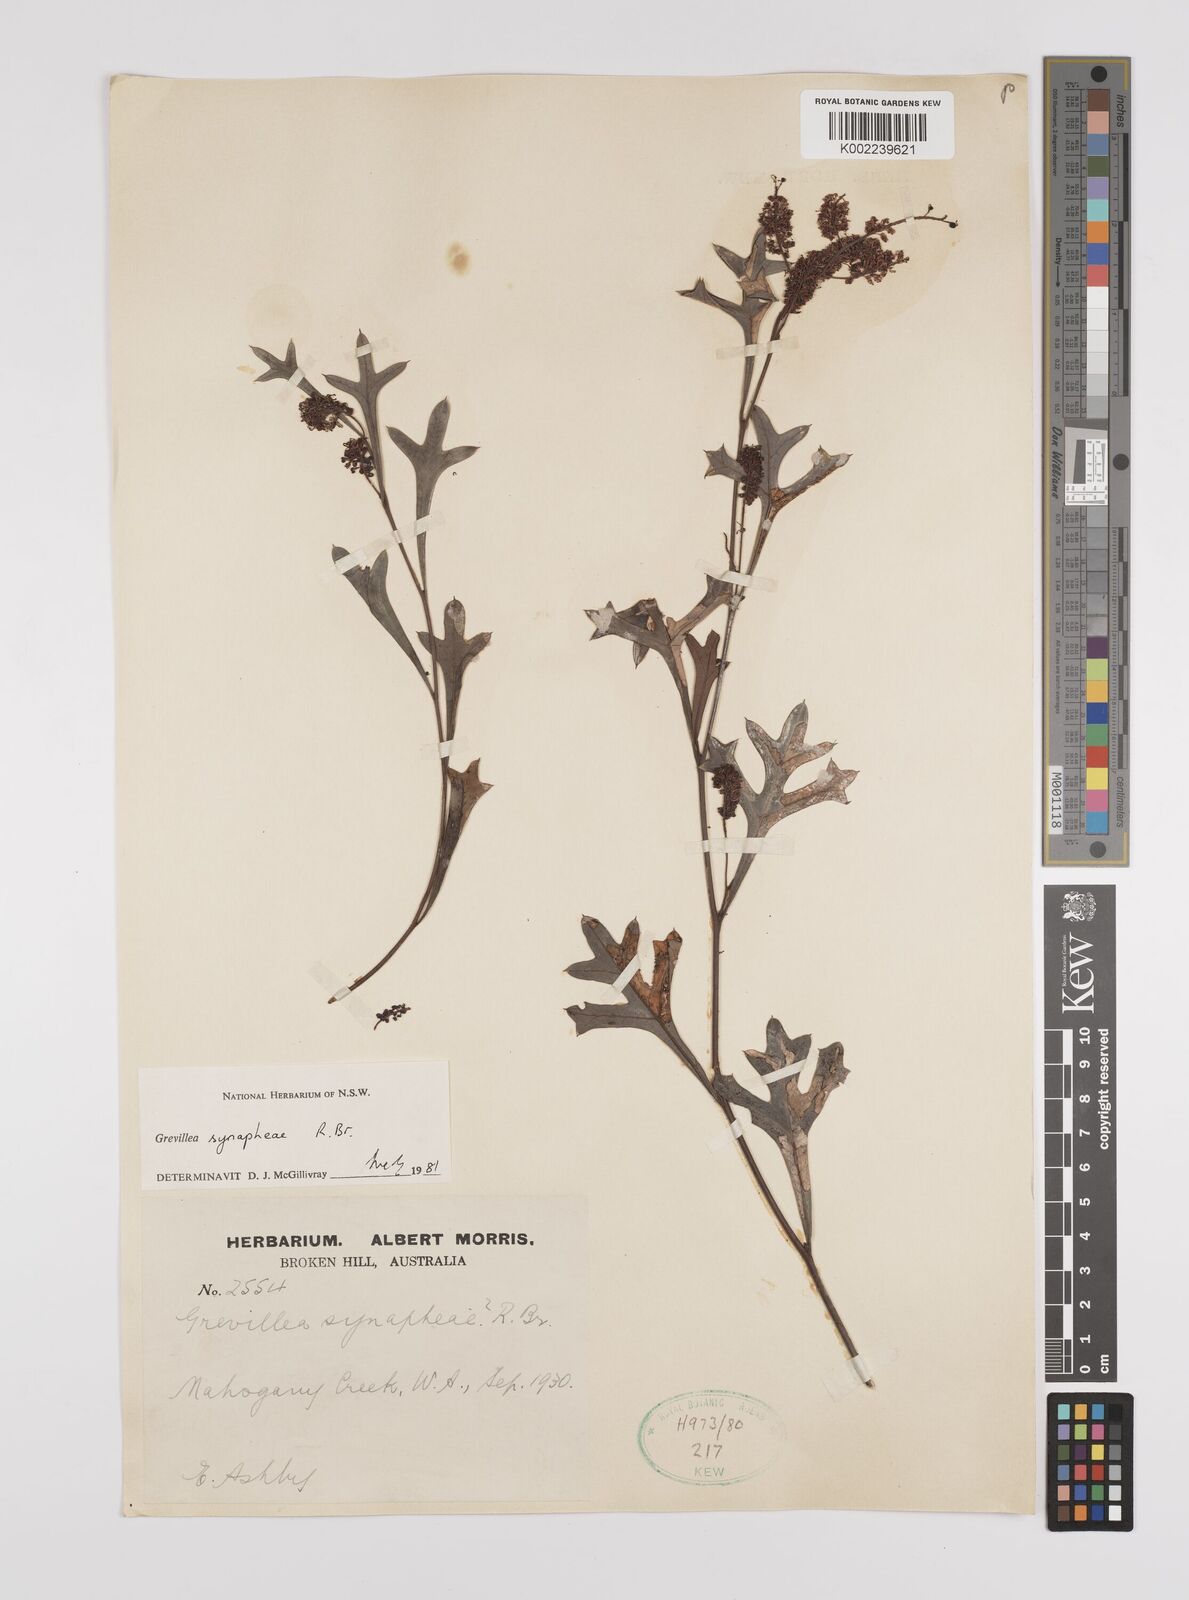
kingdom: Plantae
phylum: Tracheophyta
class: Magnoliopsida
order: Proteales
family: Proteaceae
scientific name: Proteaceae
